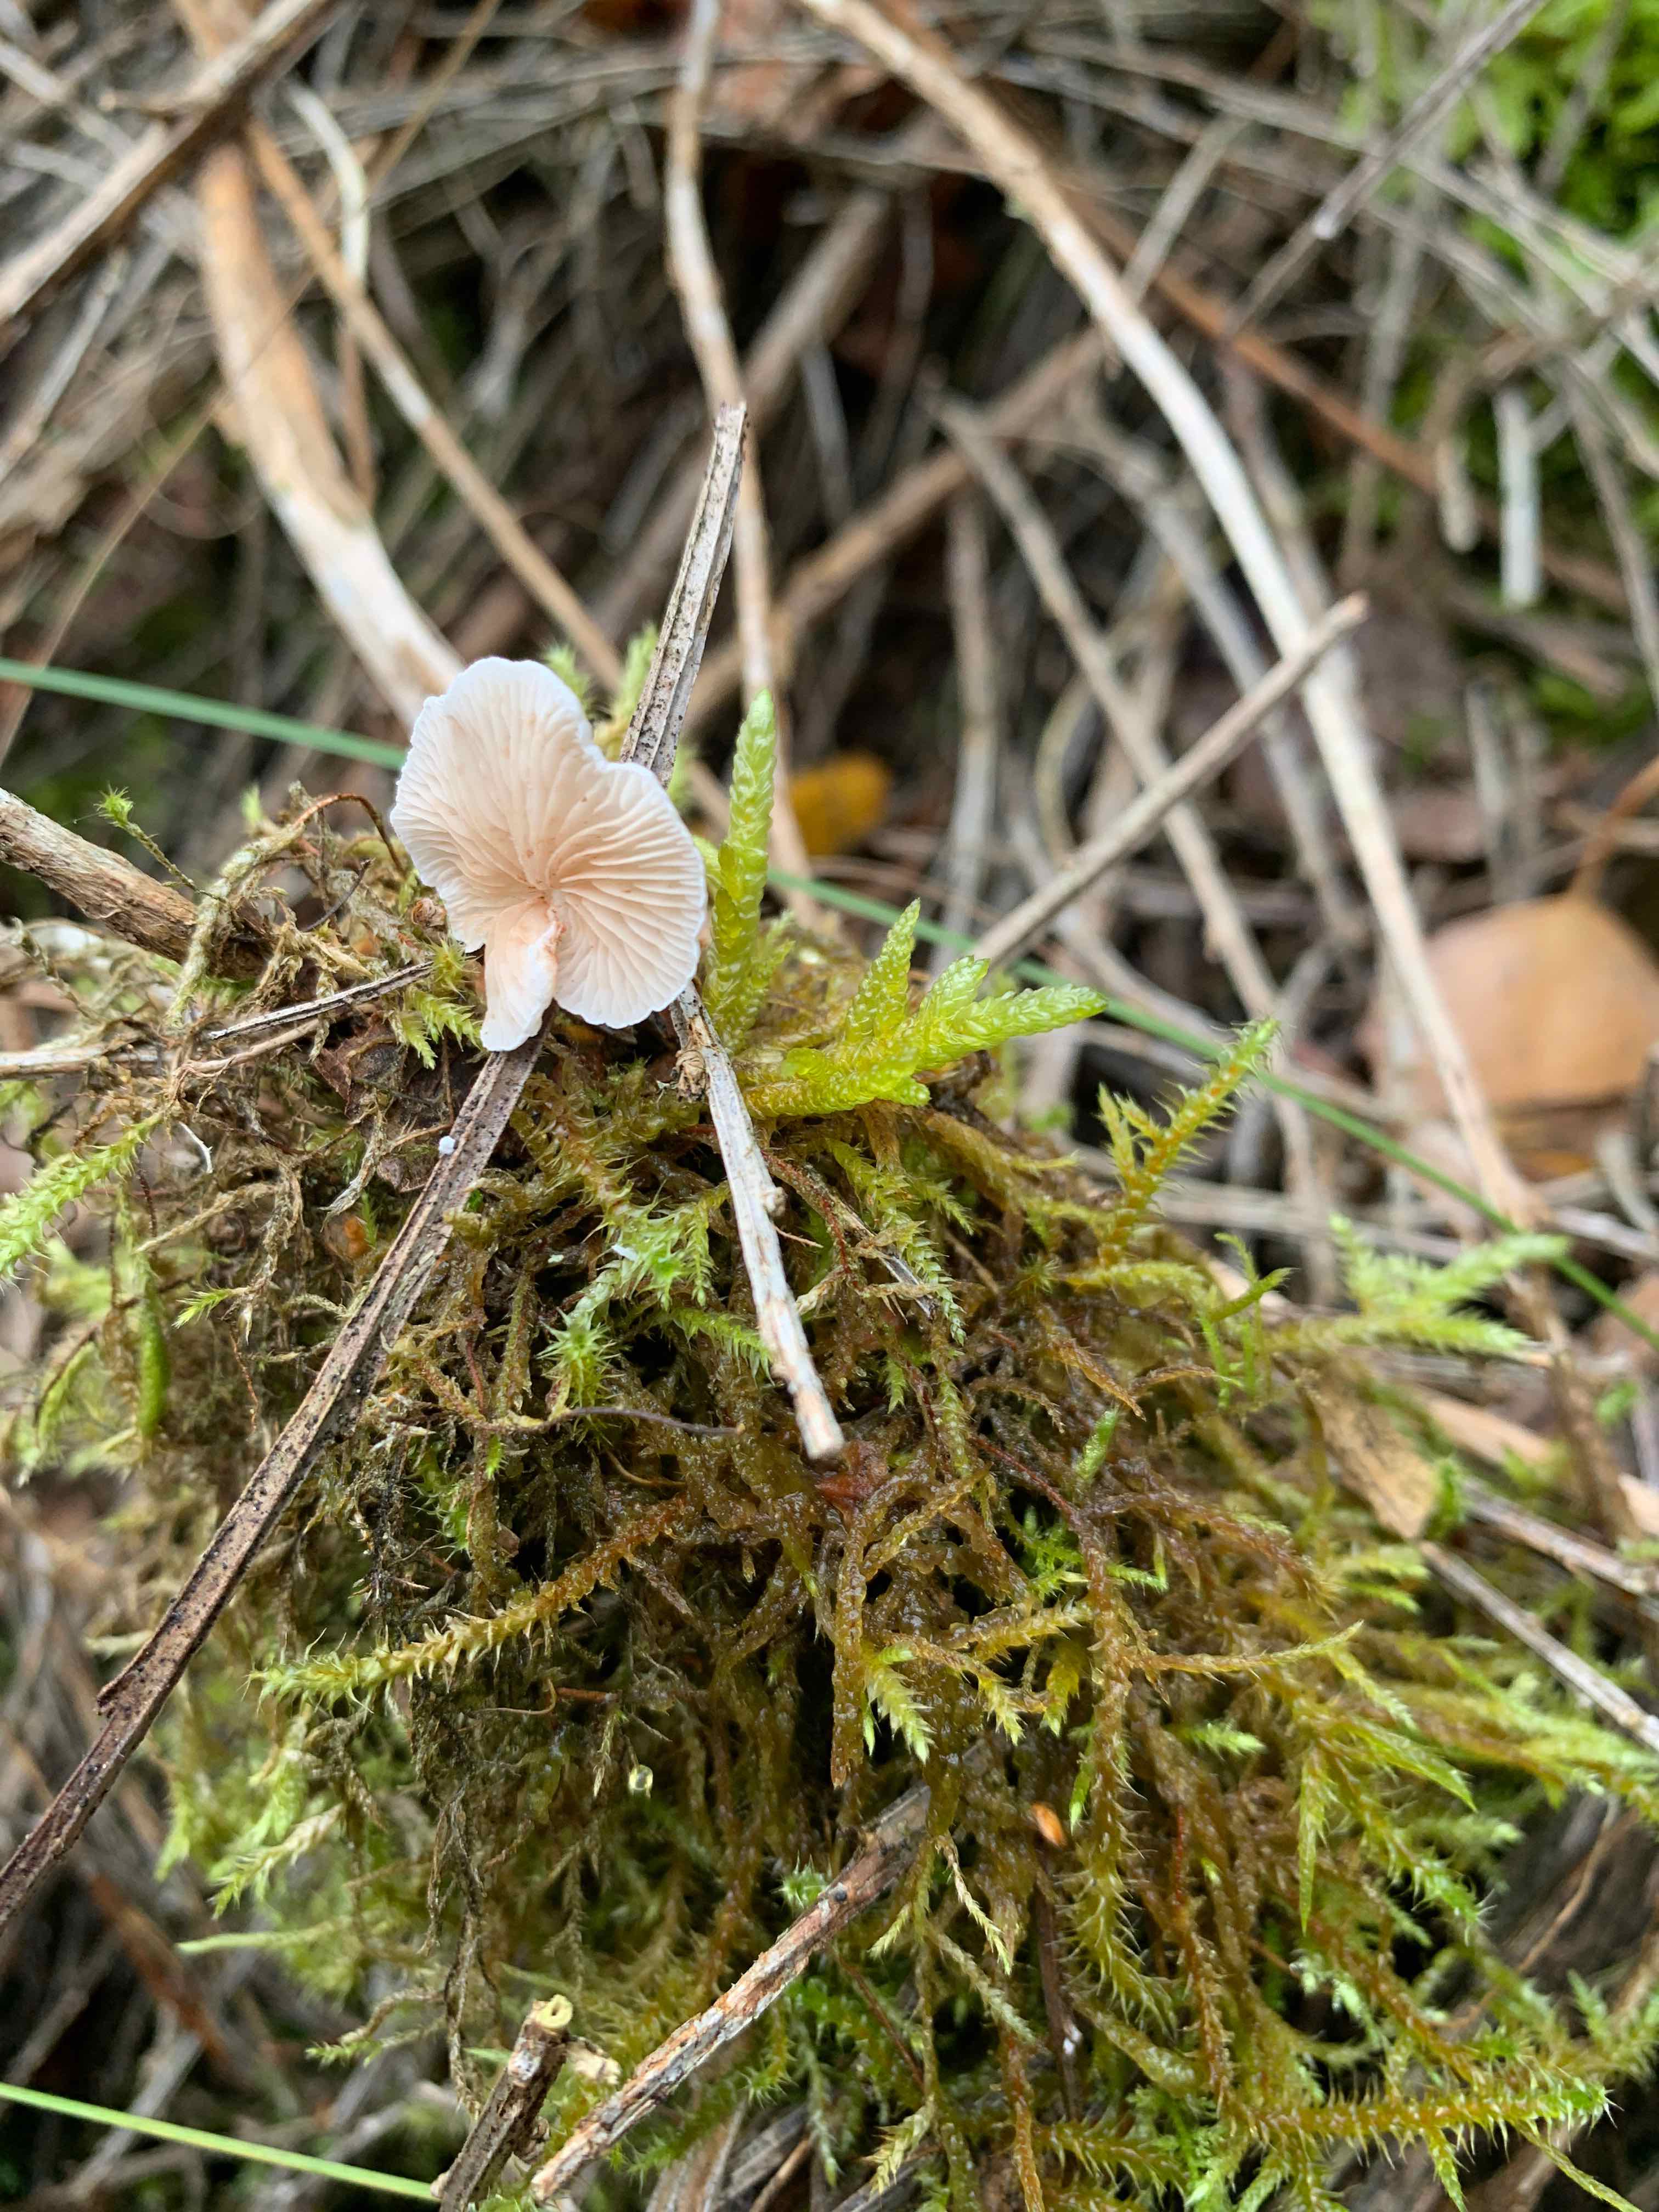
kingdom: Fungi
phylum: Basidiomycota
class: Agaricomycetes
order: Agaricales
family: Crepidotaceae
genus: Crepidotus
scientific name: Crepidotus
